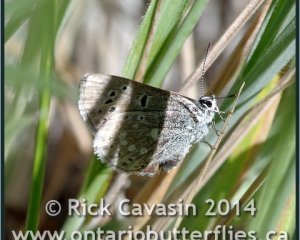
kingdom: Animalia
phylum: Arthropoda
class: Insecta
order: Lepidoptera
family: Lycaenidae
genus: Icaricia
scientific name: Icaricia icarioides
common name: Boisduval's Blue
